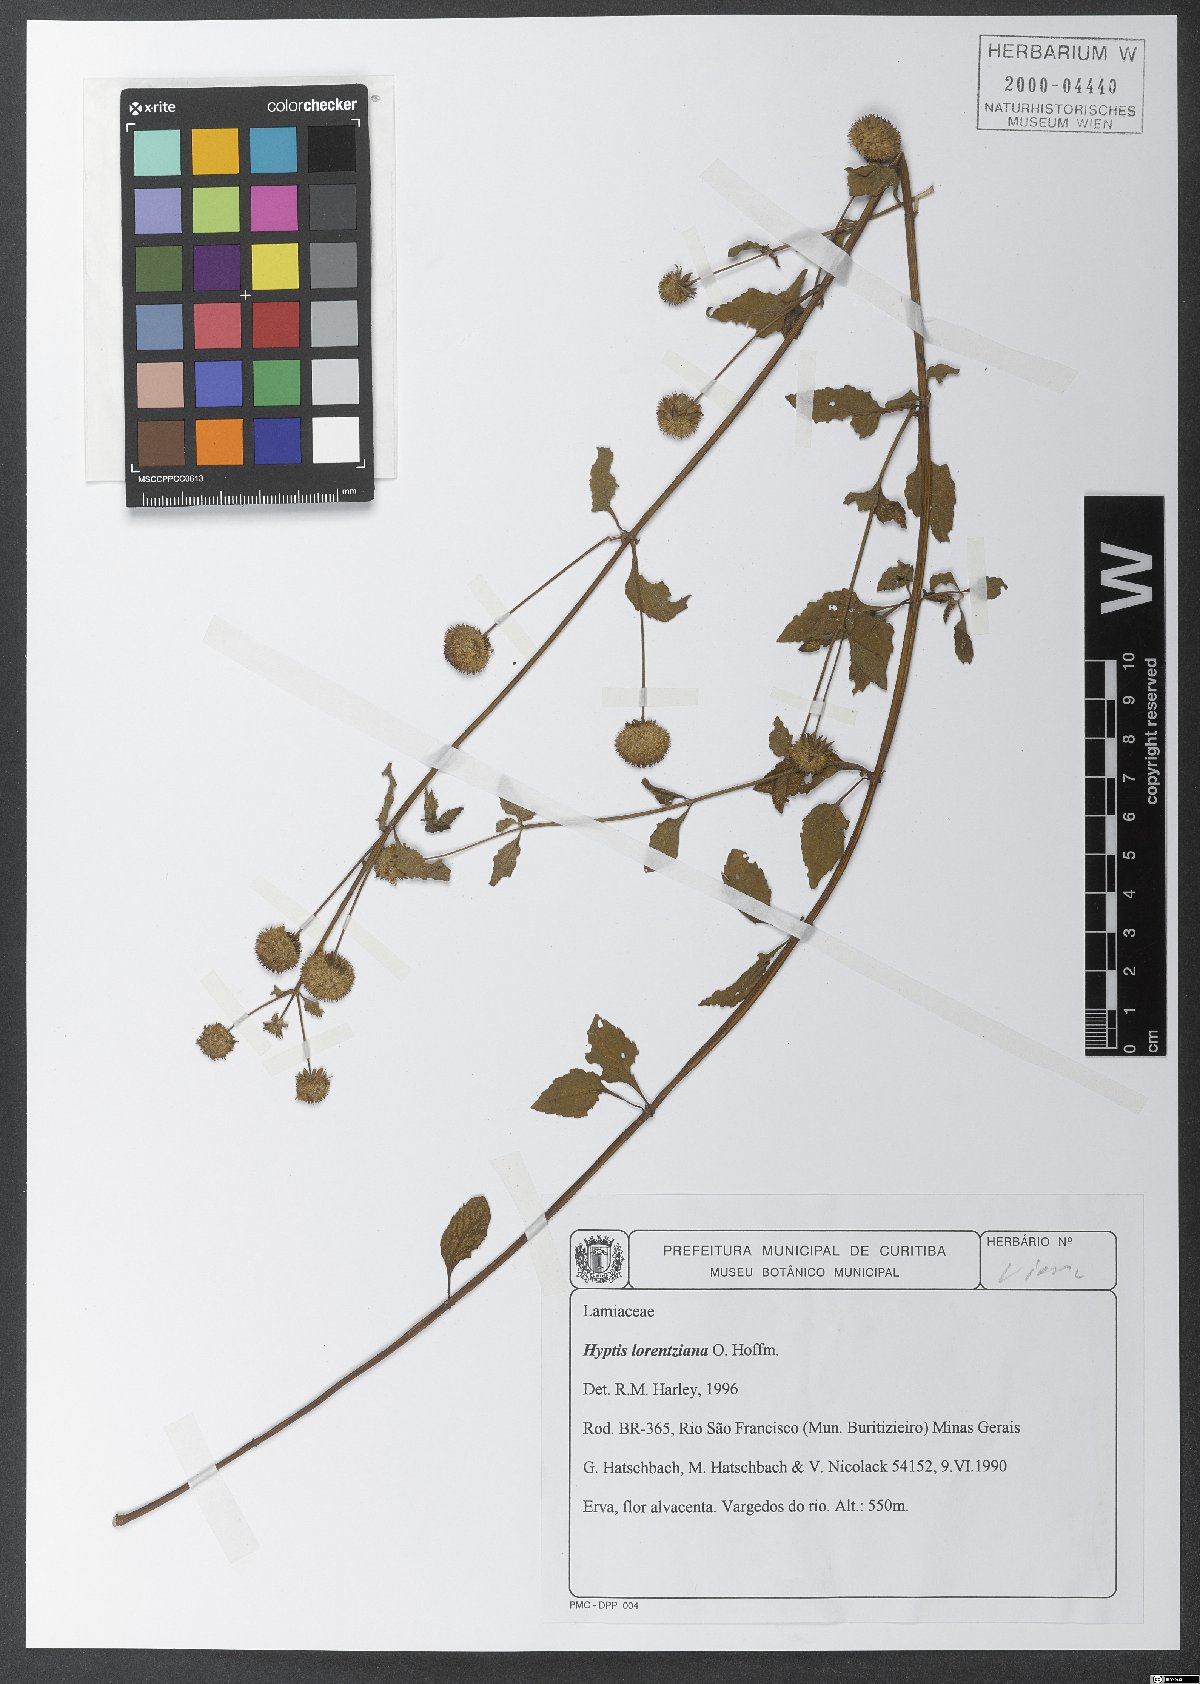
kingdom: Plantae
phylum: Tracheophyta
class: Magnoliopsida
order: Lamiales
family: Lamiaceae
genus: Hyptis
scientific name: Hyptis lorentziana
